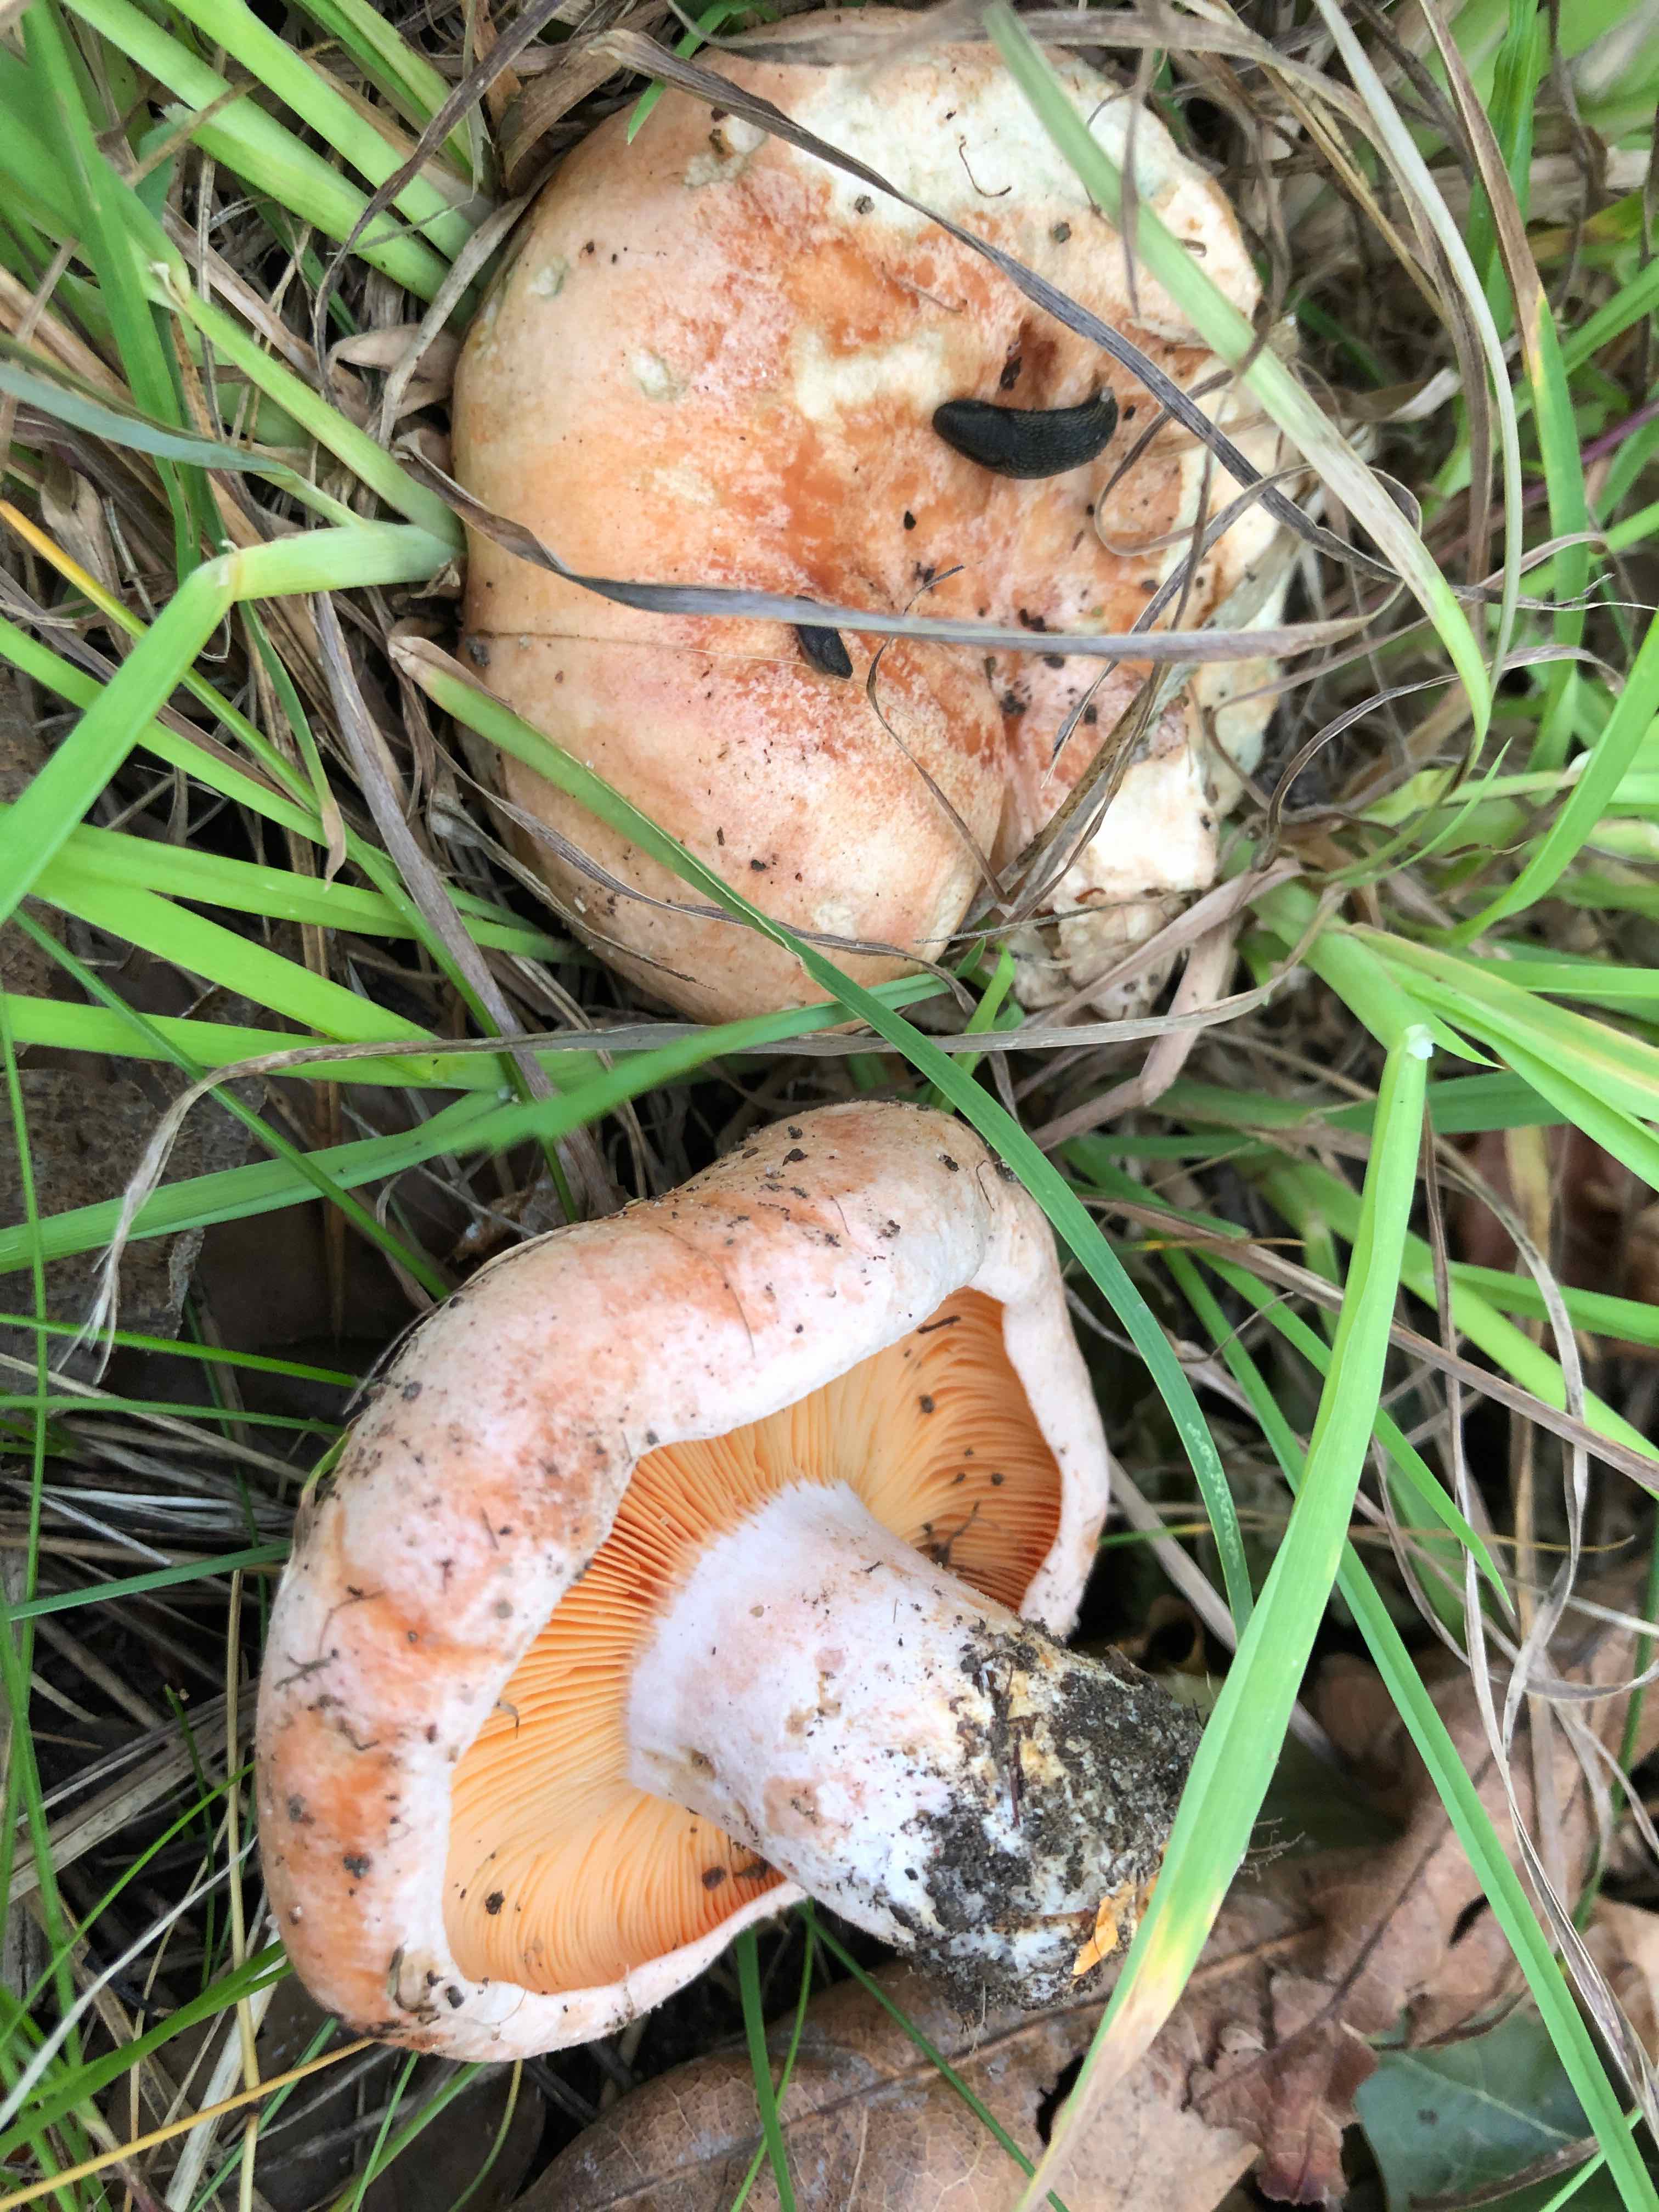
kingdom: Fungi
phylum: Basidiomycota
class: Agaricomycetes
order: Russulales
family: Russulaceae
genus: Lactarius
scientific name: Lactarius deliciosus
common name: velsmagende mælkehat
